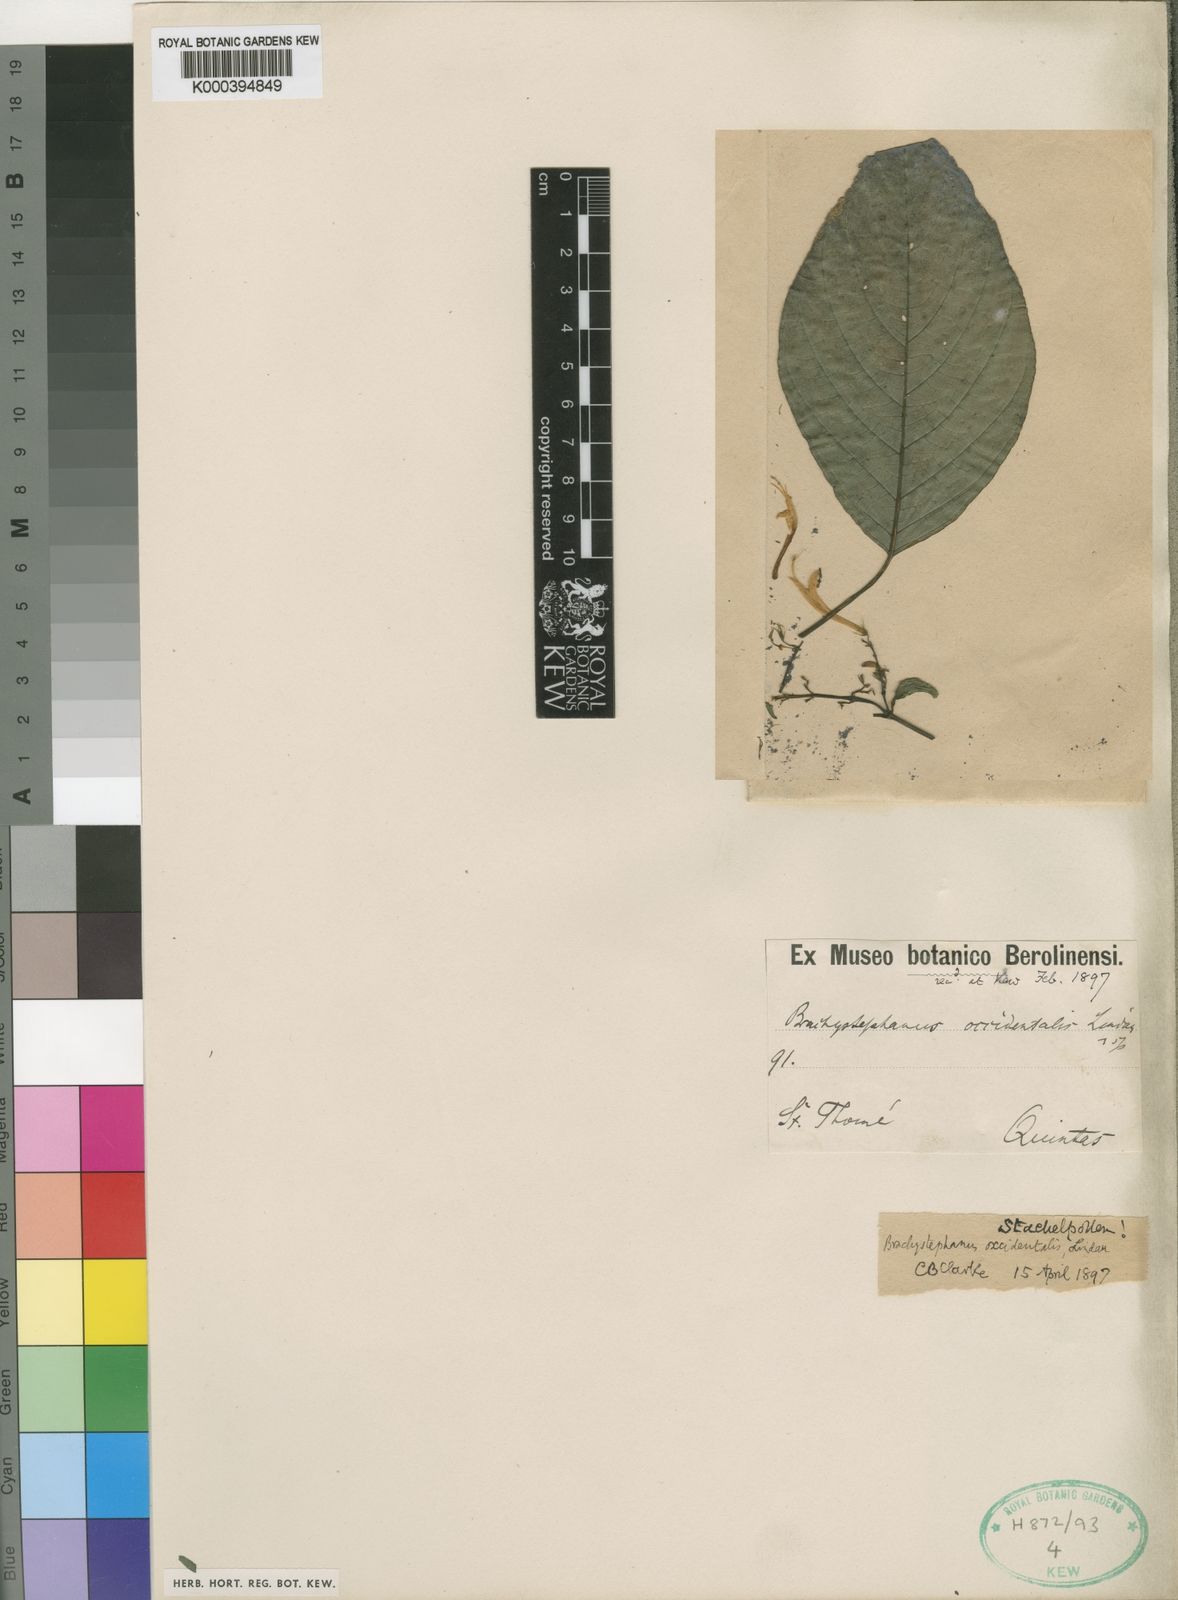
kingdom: Plantae
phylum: Tracheophyta
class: Magnoliopsida
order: Lamiales
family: Acanthaceae
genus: Brachystephanus
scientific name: Brachystephanus occidentalis
